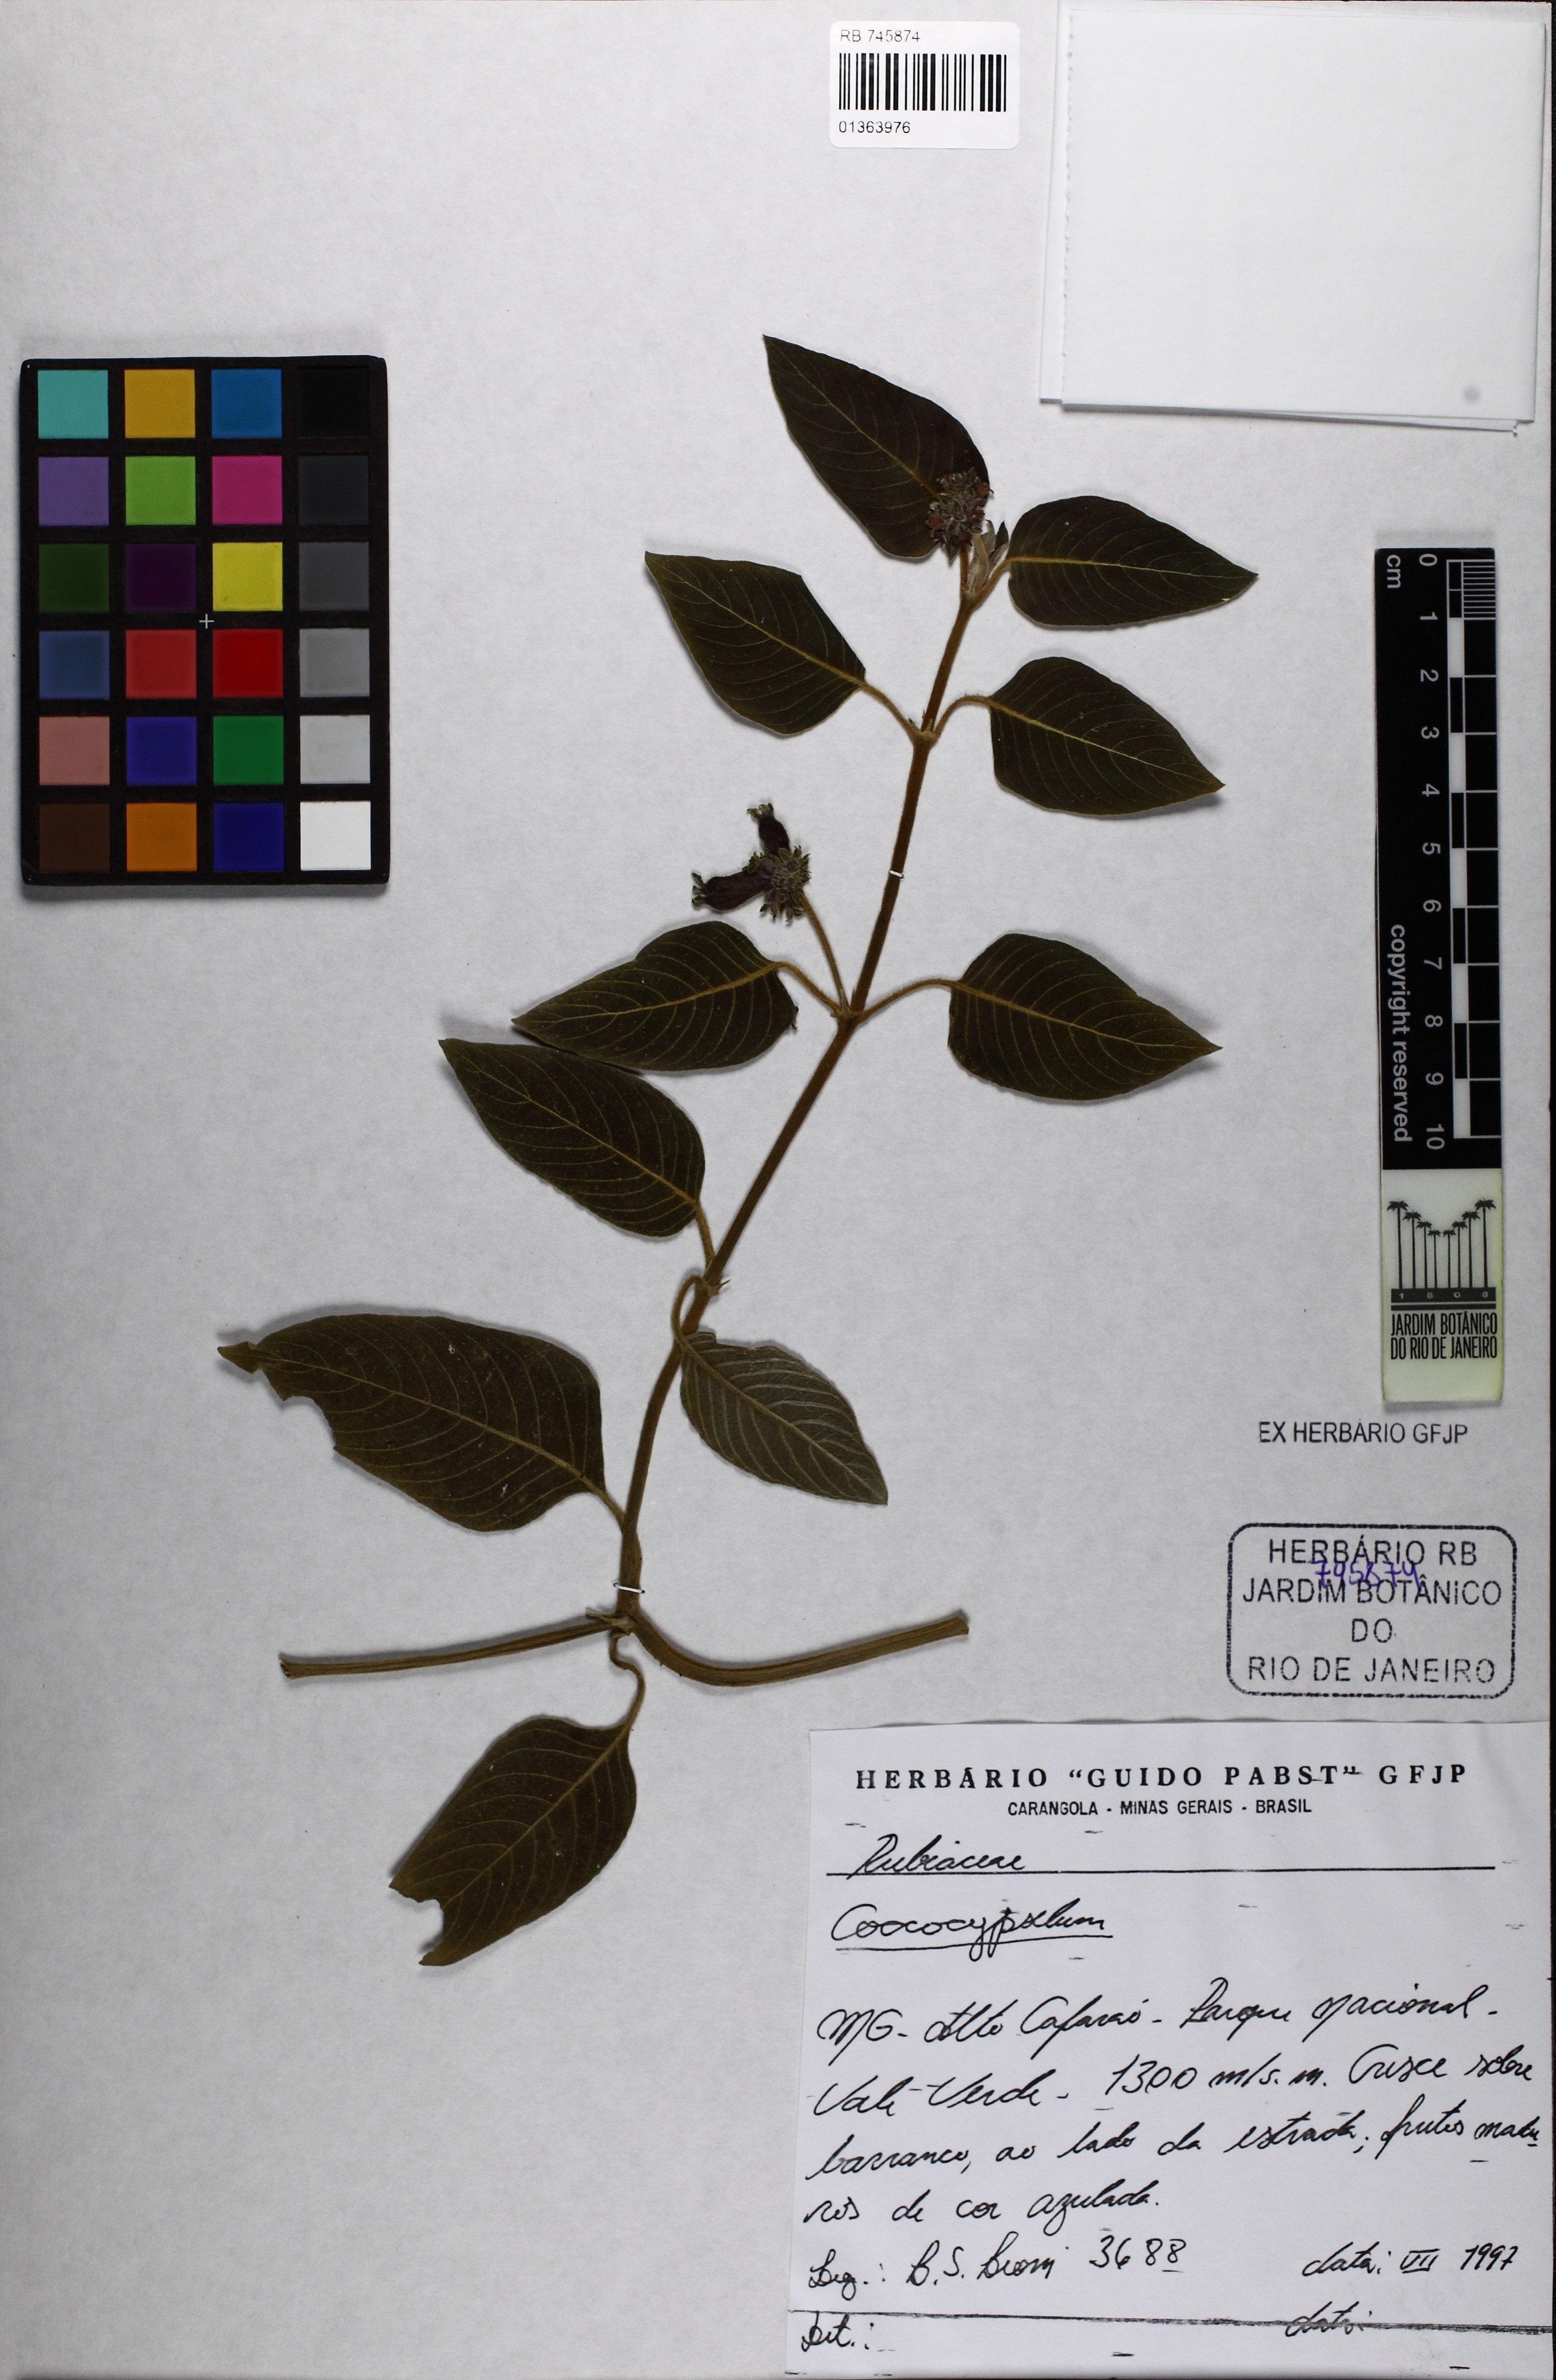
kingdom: Plantae
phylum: Tracheophyta
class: Magnoliopsida
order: Gentianales
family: Rubiaceae
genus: Coccocypselum
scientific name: Coccocypselum lanceolatum
